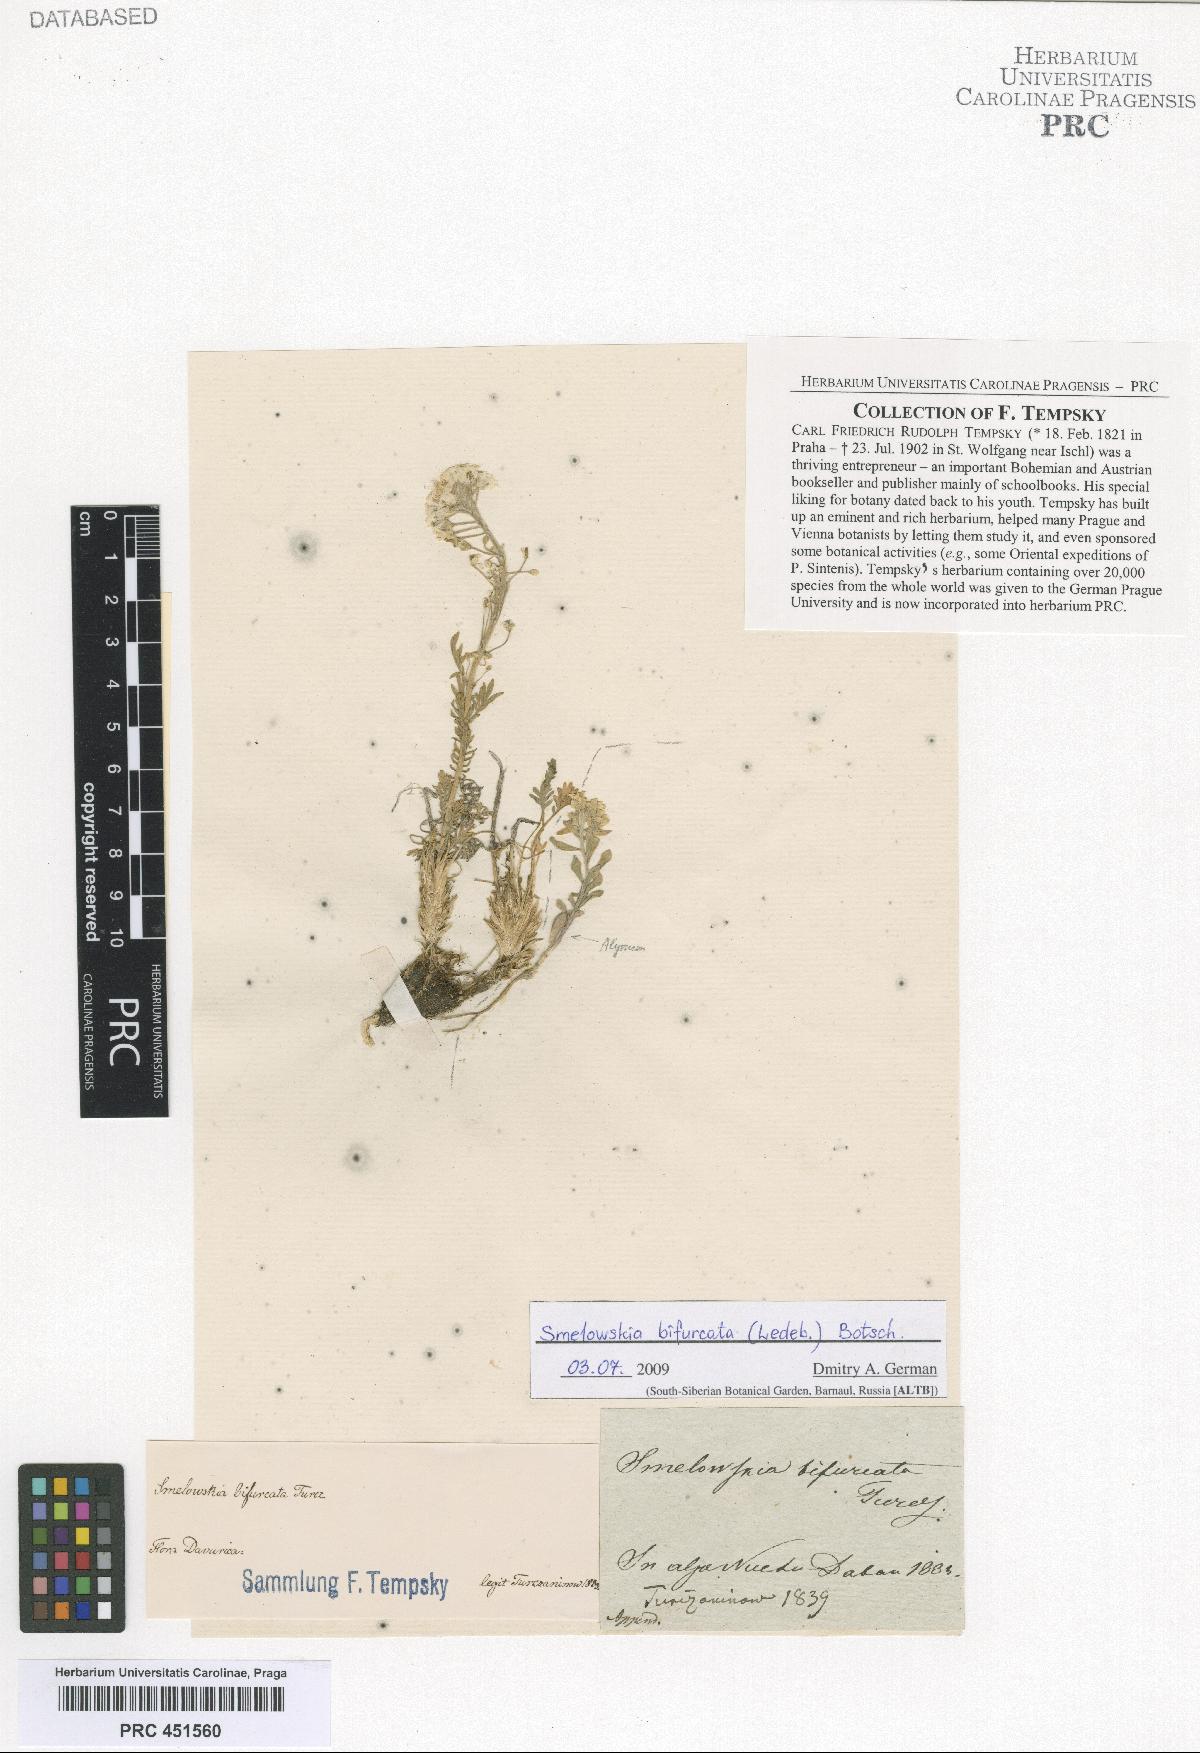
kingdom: Plantae
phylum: Tracheophyta
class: Magnoliopsida
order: Brassicales
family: Brassicaceae
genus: Smelowskia
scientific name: Smelowskia
